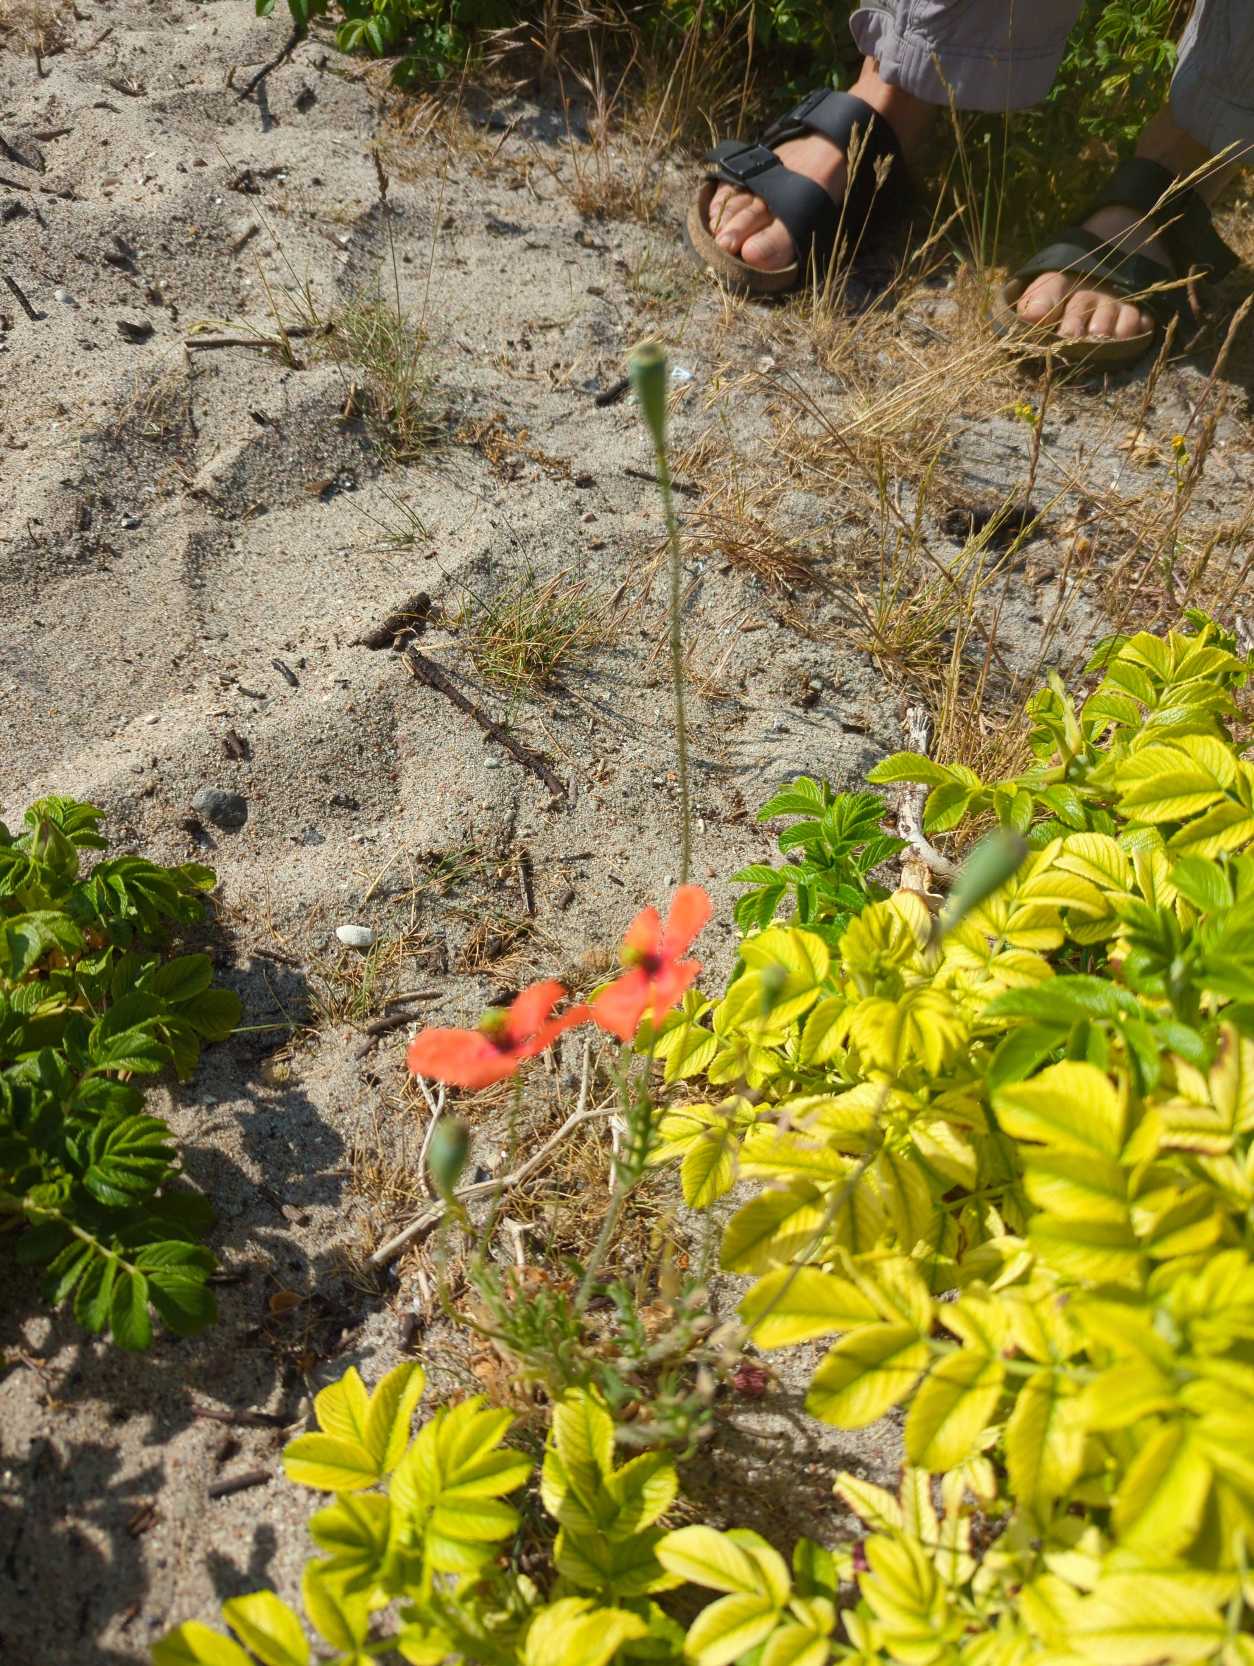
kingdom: Plantae
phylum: Tracheophyta
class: Magnoliopsida
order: Ranunculales
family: Papaveraceae
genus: Papaver
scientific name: Papaver dubium
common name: Gærde-valmue
